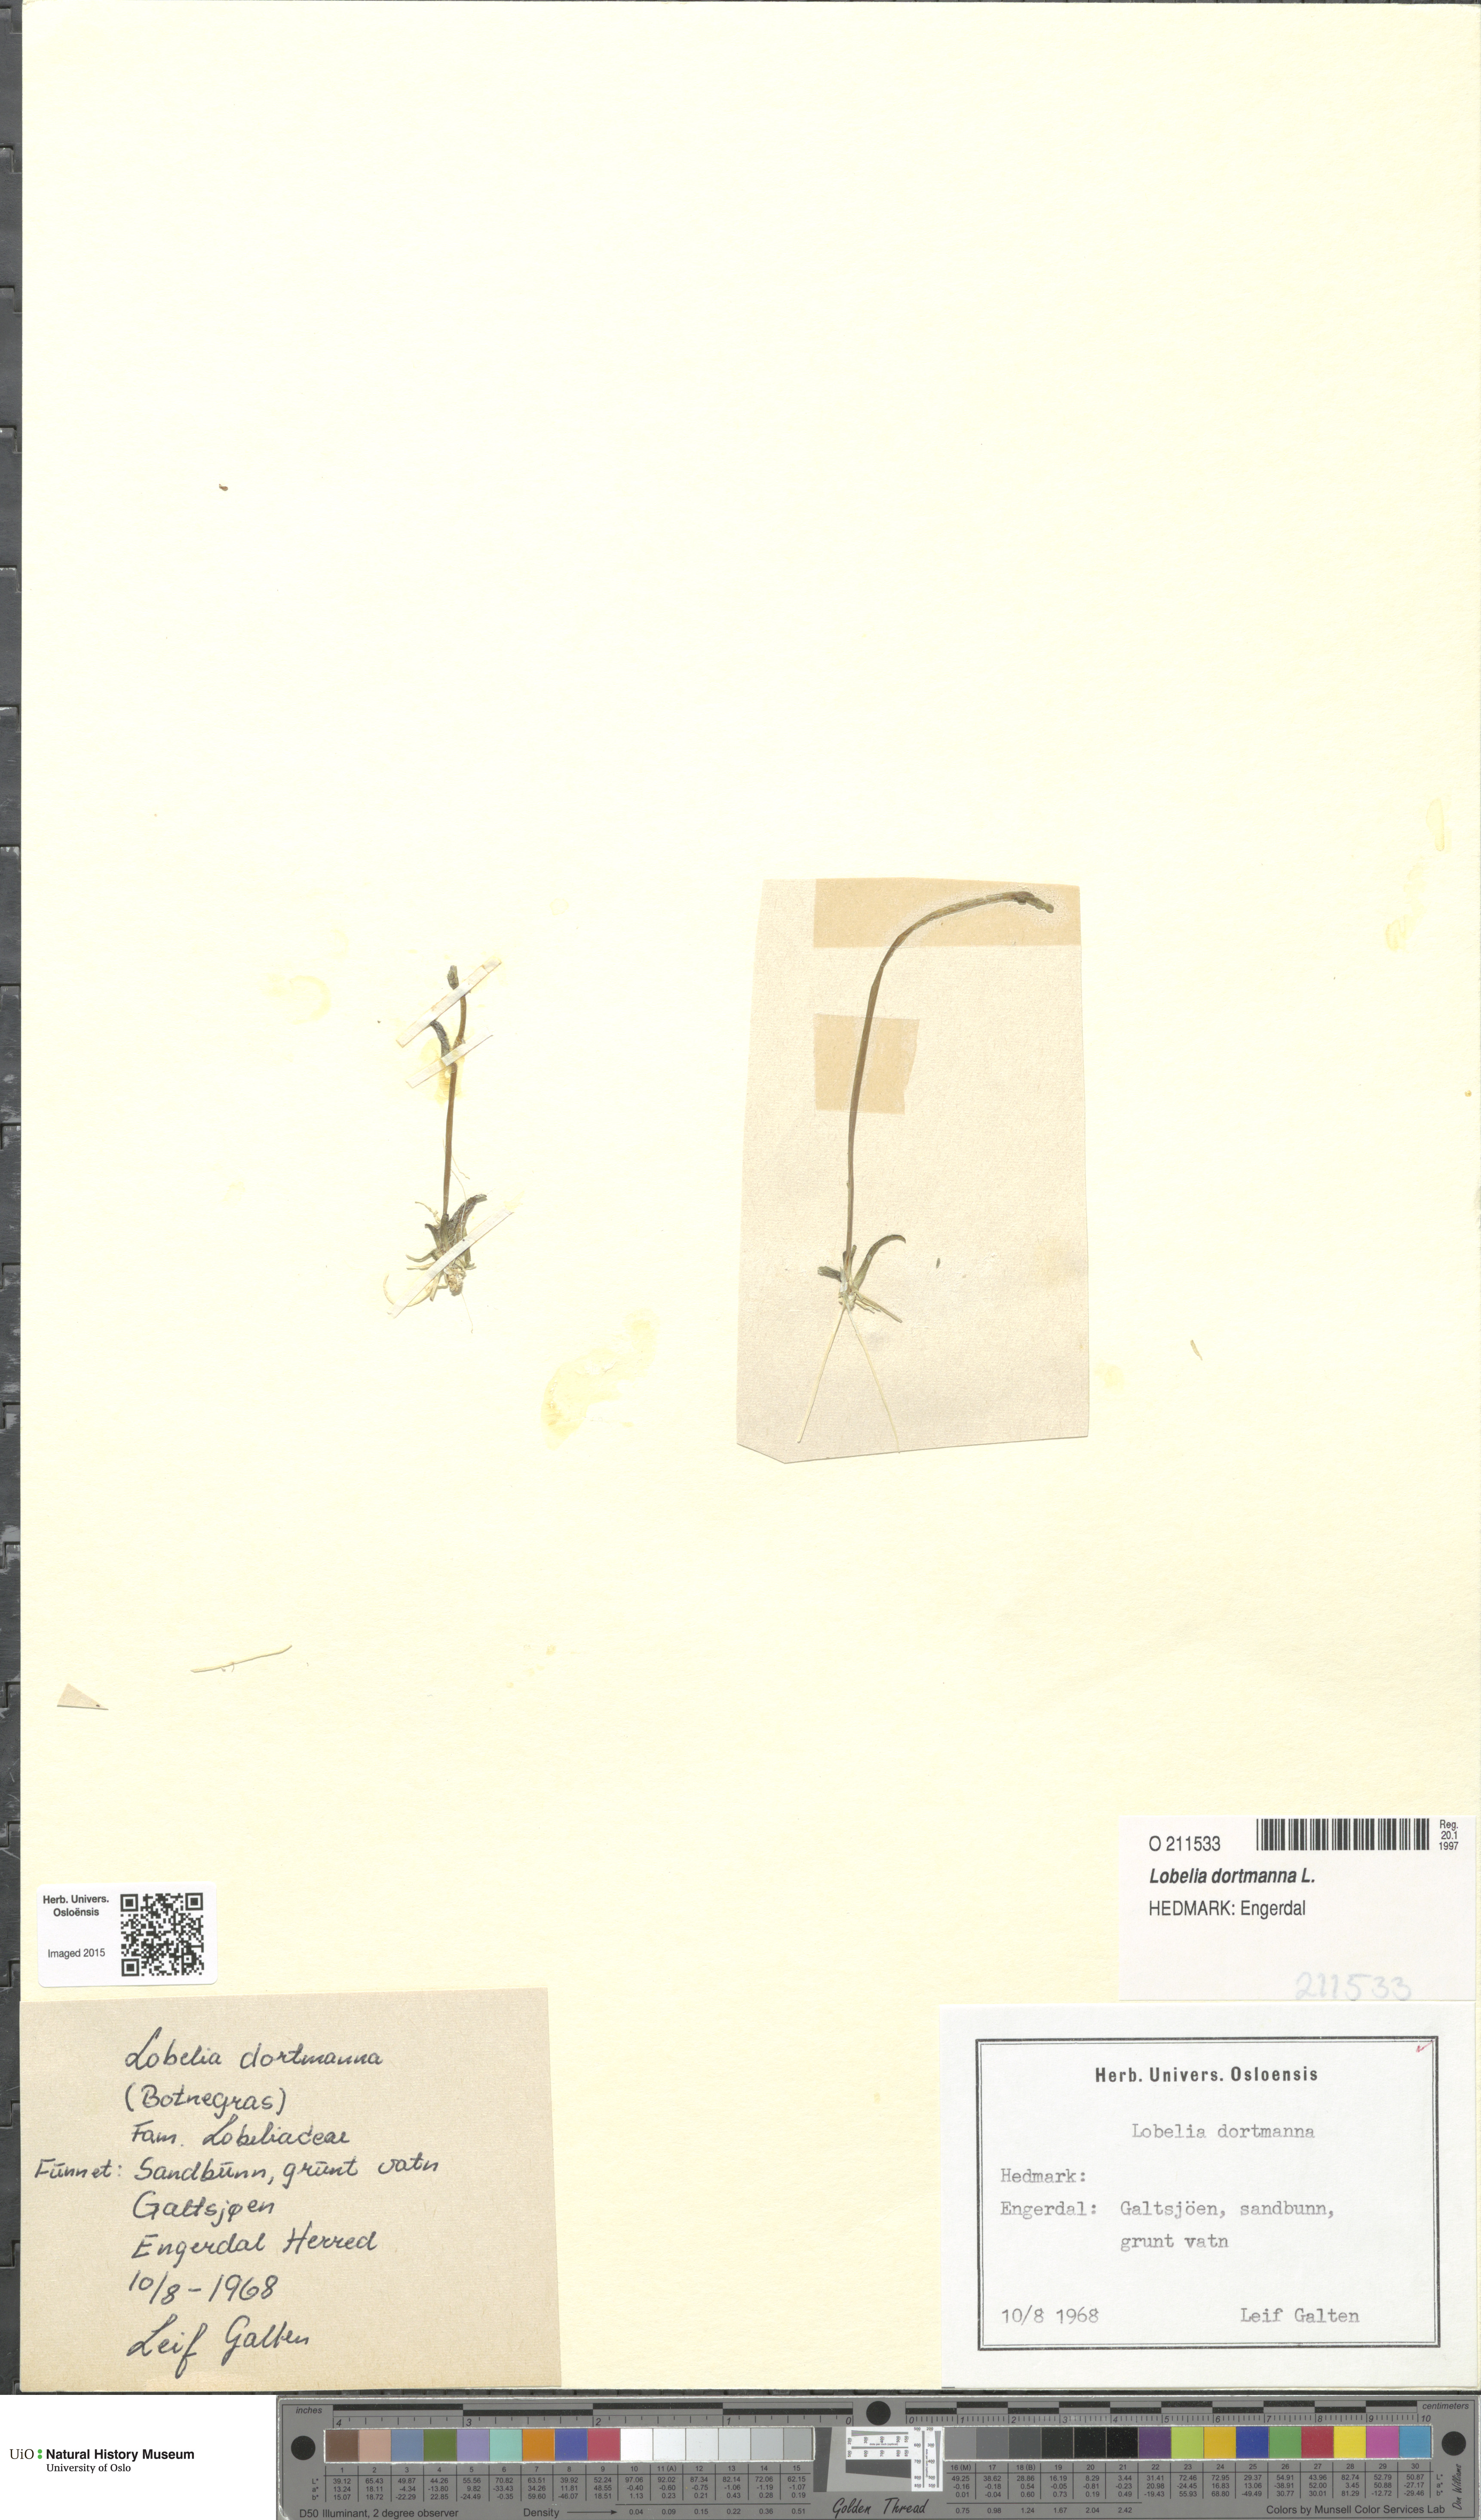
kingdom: Plantae
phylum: Tracheophyta
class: Magnoliopsida
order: Asterales
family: Campanulaceae
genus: Lobelia
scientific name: Lobelia dortmanna
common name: Water lobelia
